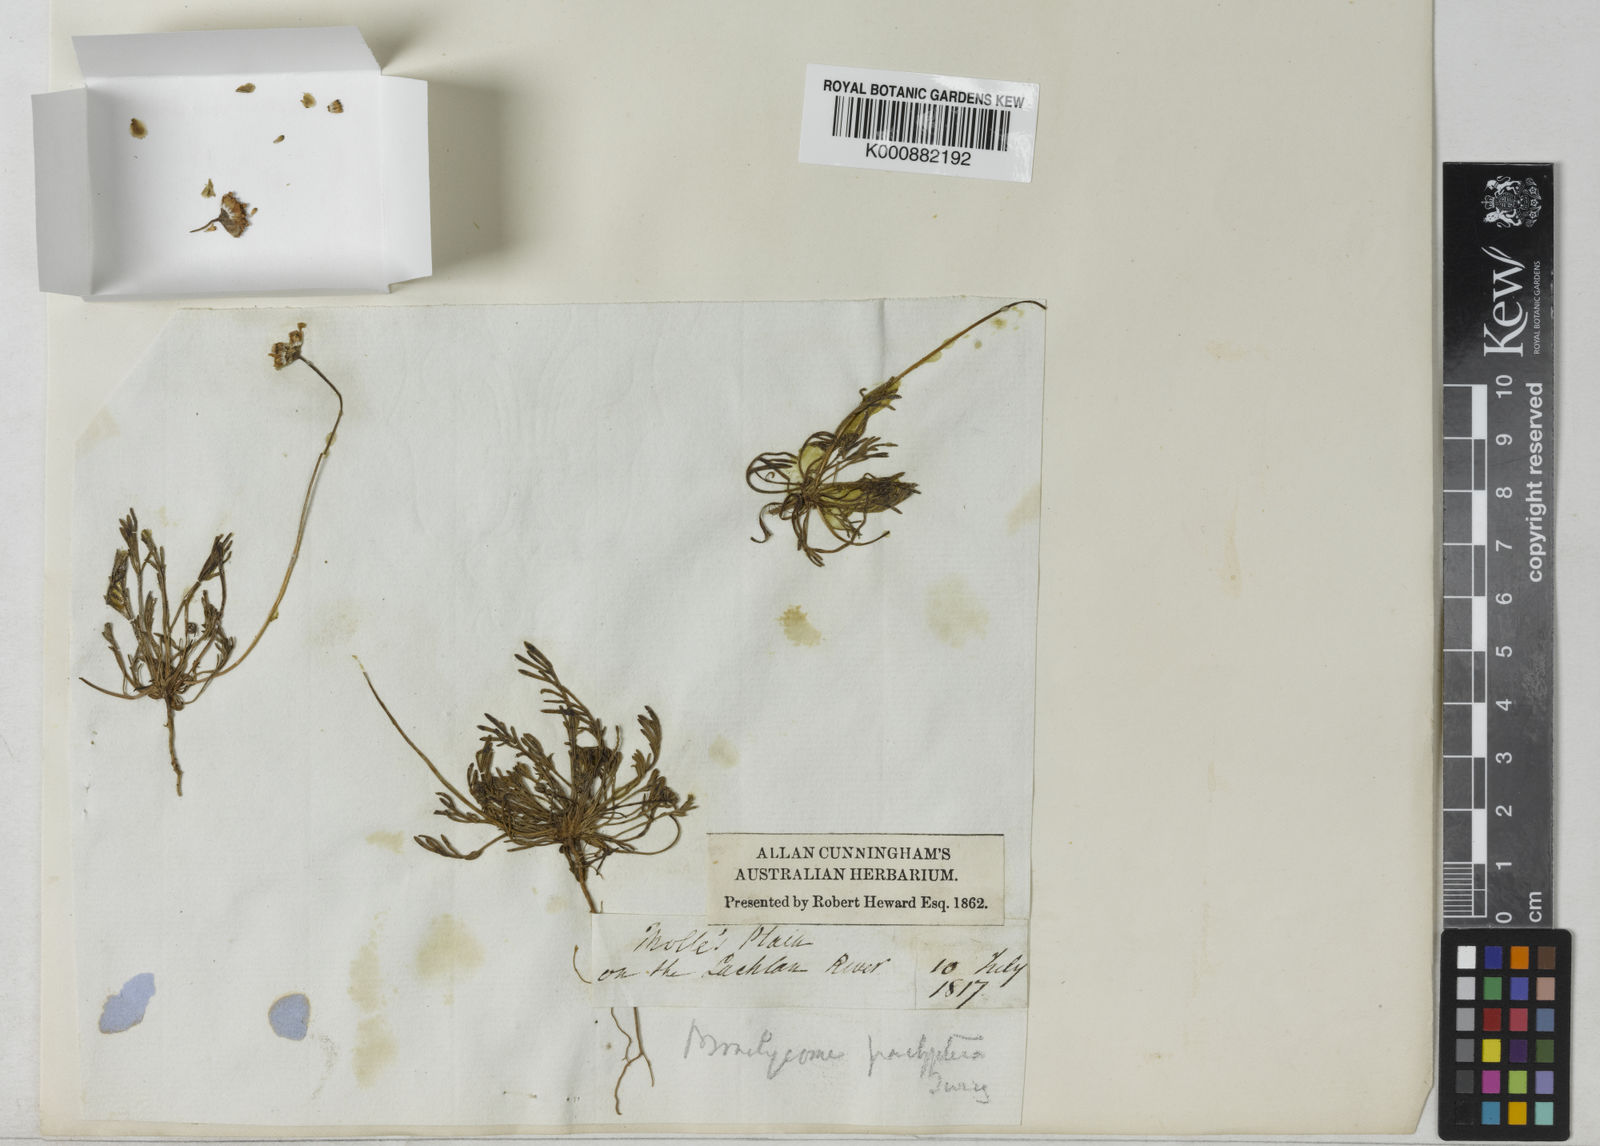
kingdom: Plantae
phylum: Tracheophyta
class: Magnoliopsida
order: Asterales
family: Asteraceae
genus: Brachyscome
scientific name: Brachyscome lineariloba
